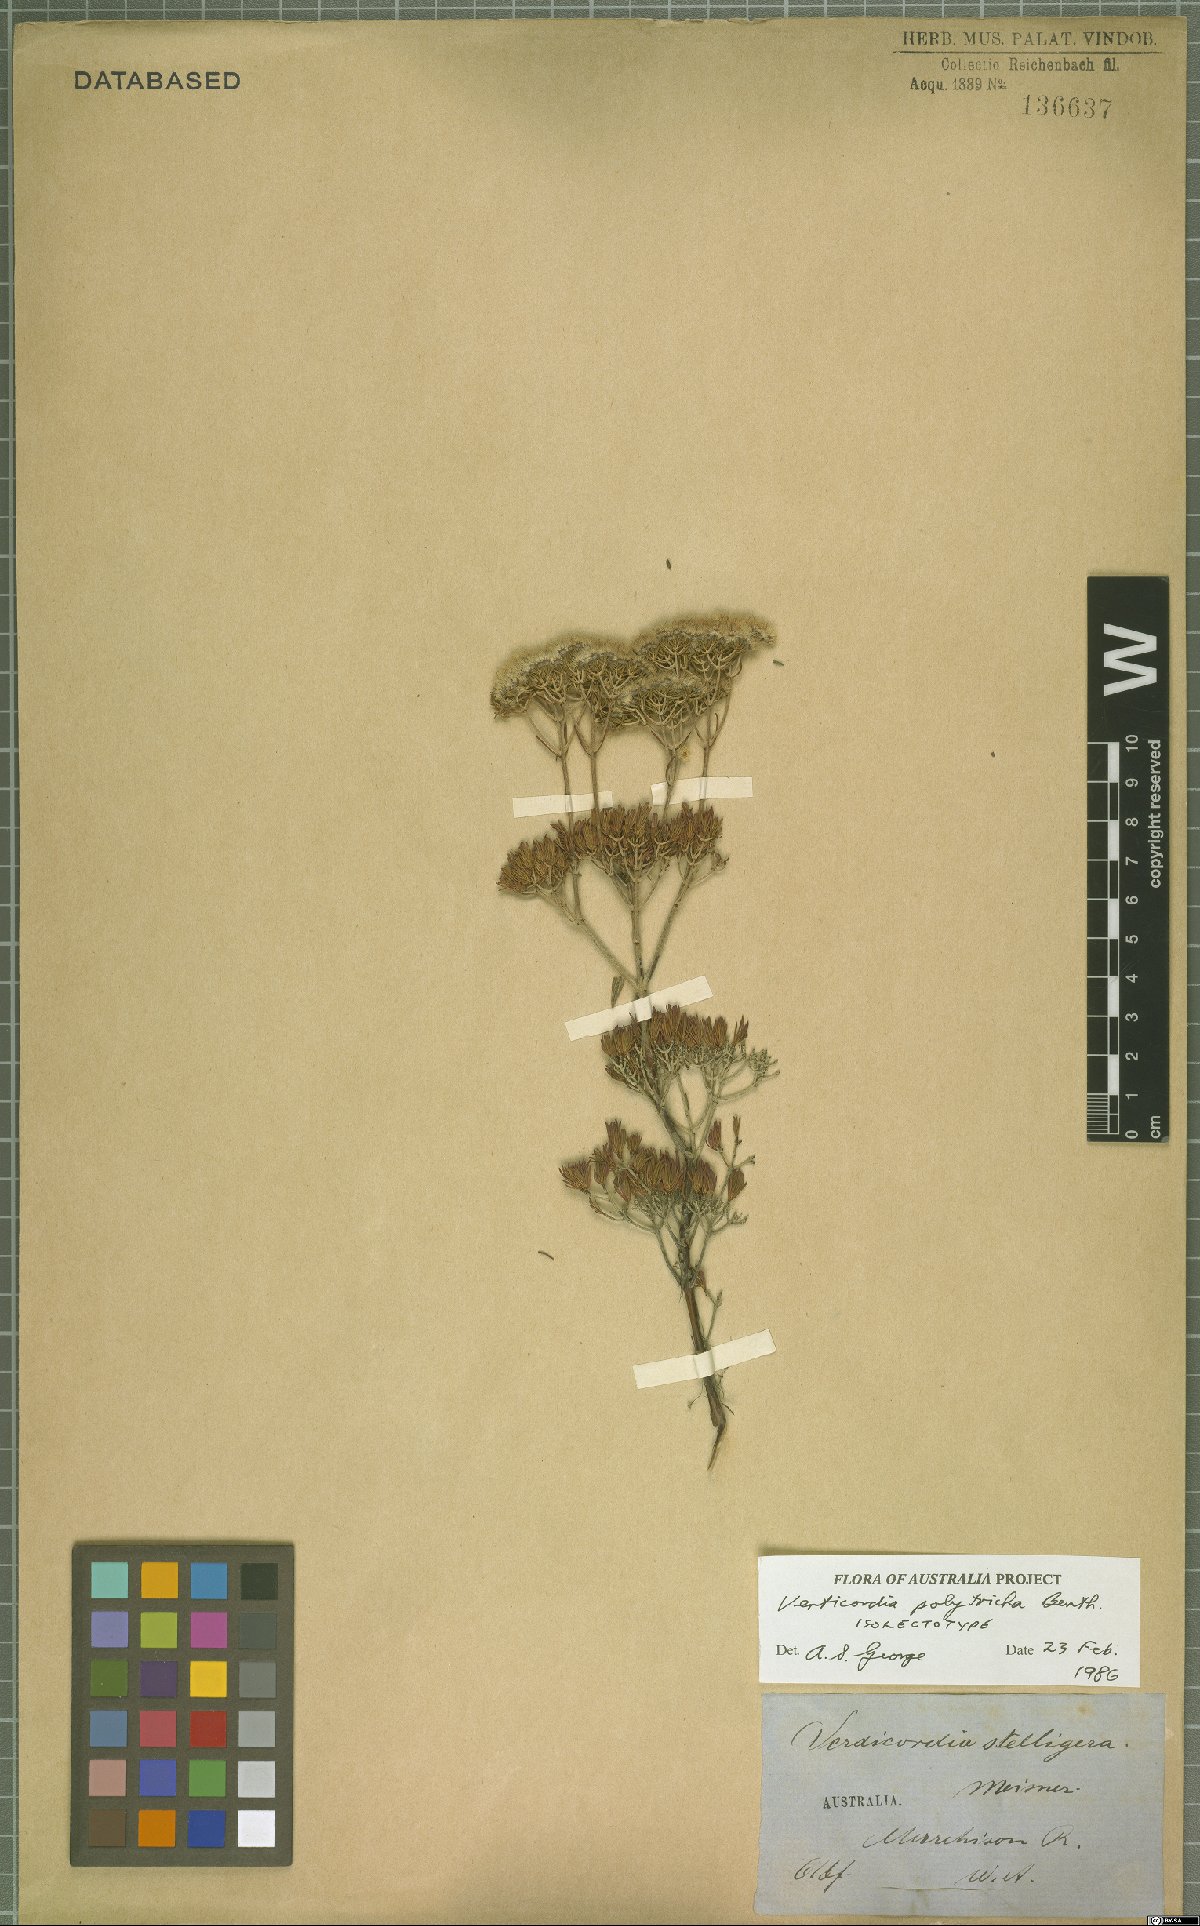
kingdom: Plantae
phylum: Tracheophyta
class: Magnoliopsida
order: Myrtales
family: Myrtaceae
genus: Verticordia
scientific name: Verticordia polytricha
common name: Northern-cauliflower
